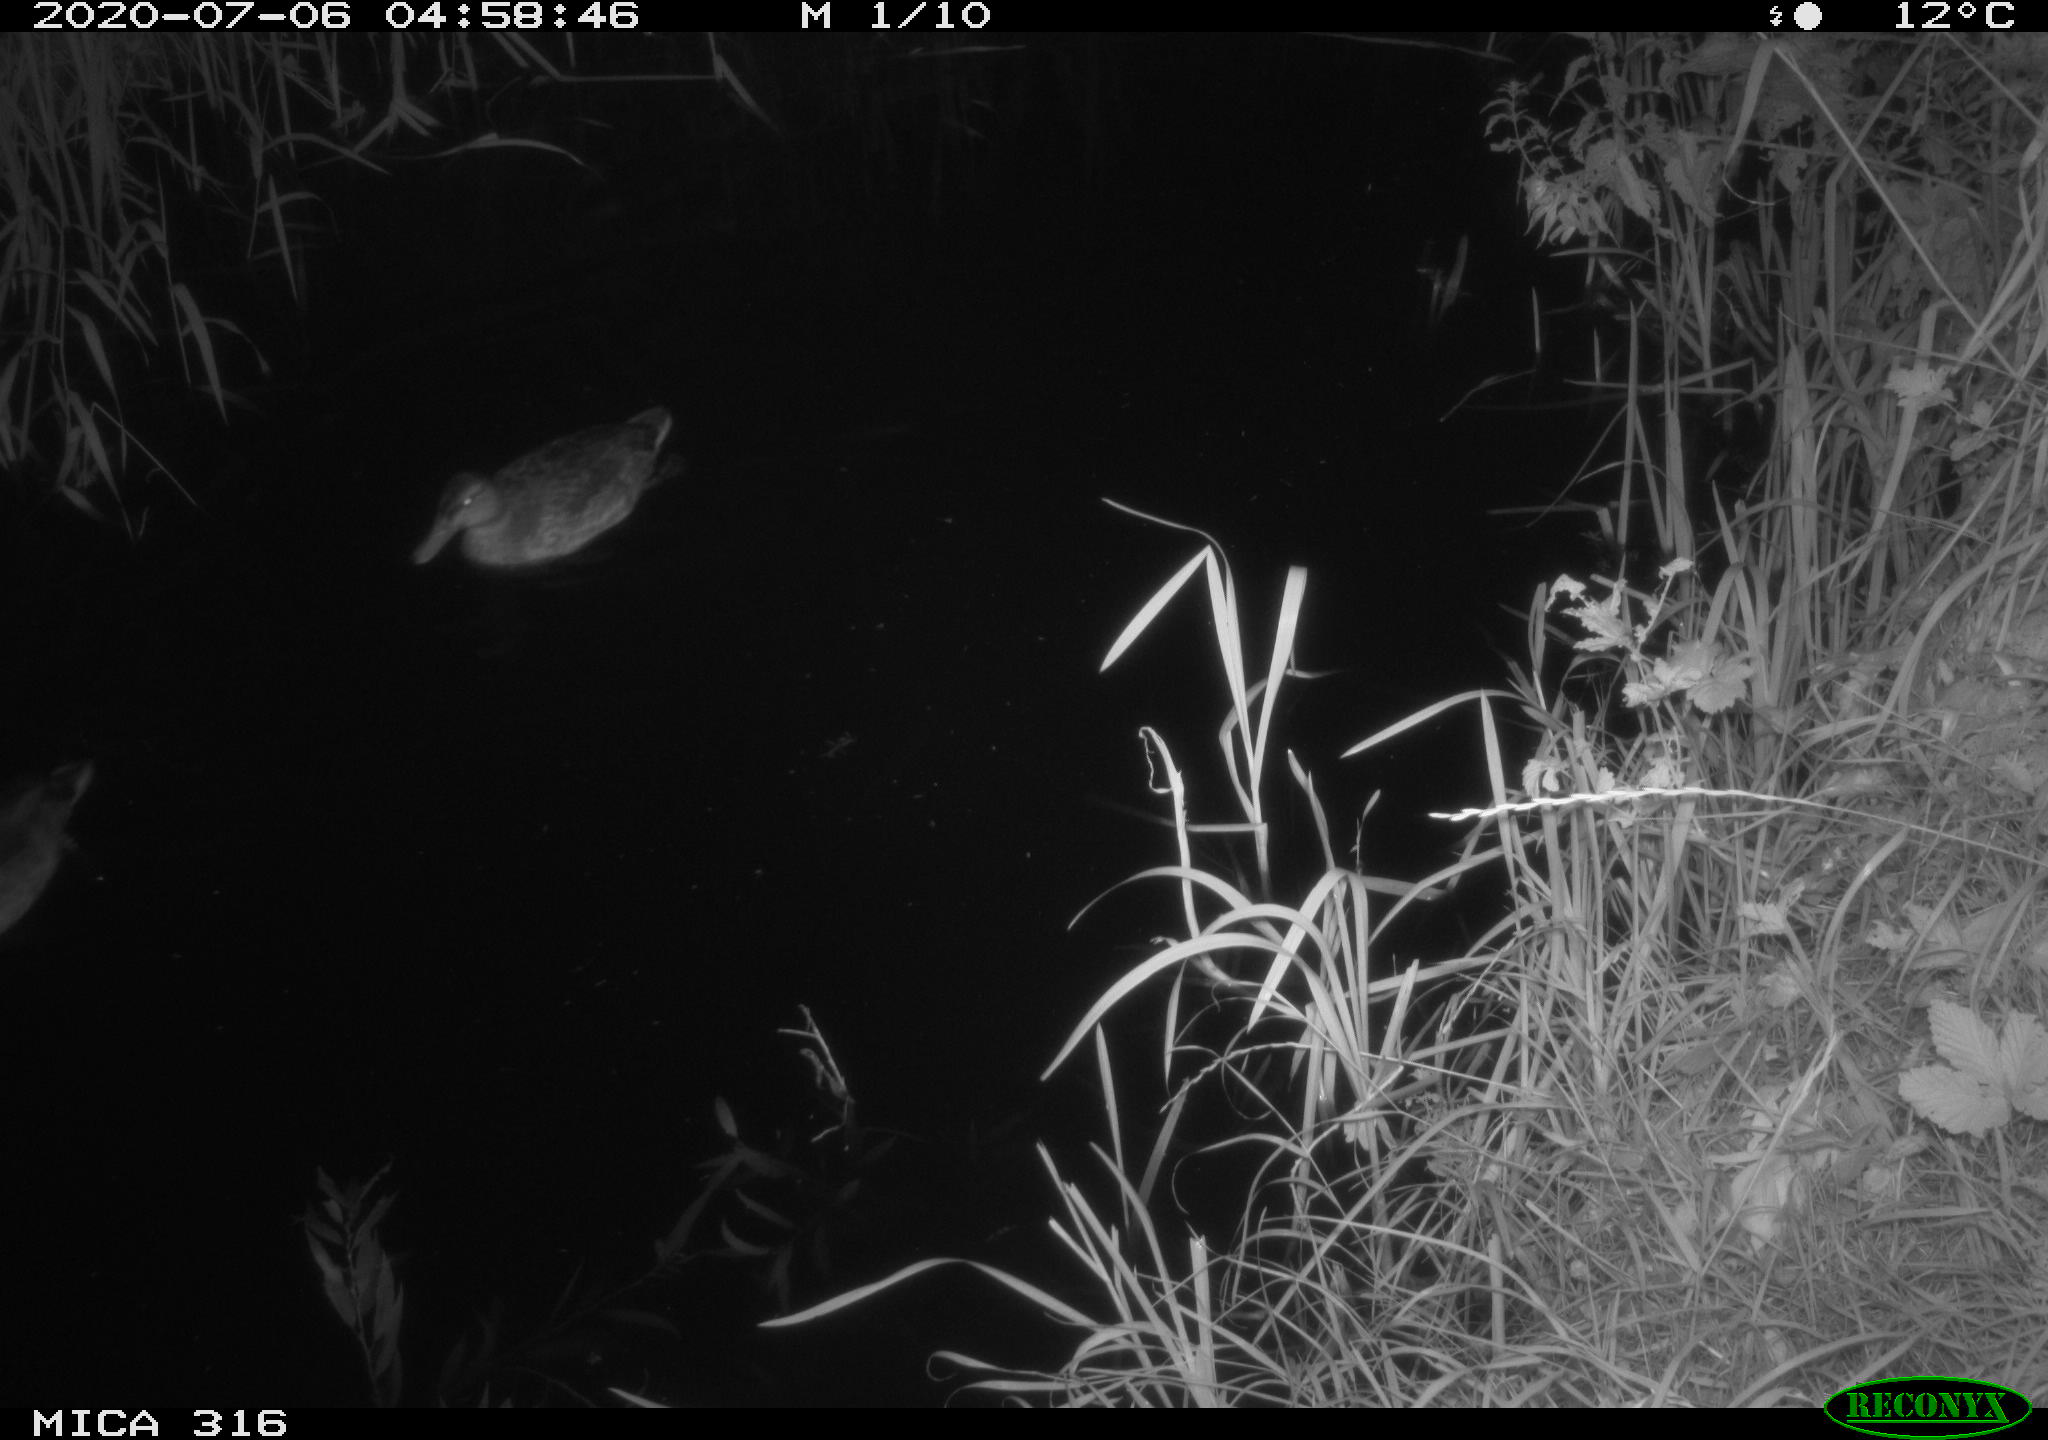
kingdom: Animalia
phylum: Chordata
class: Aves
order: Anseriformes
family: Anatidae
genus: Anas
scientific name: Anas platyrhynchos
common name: Mallard
